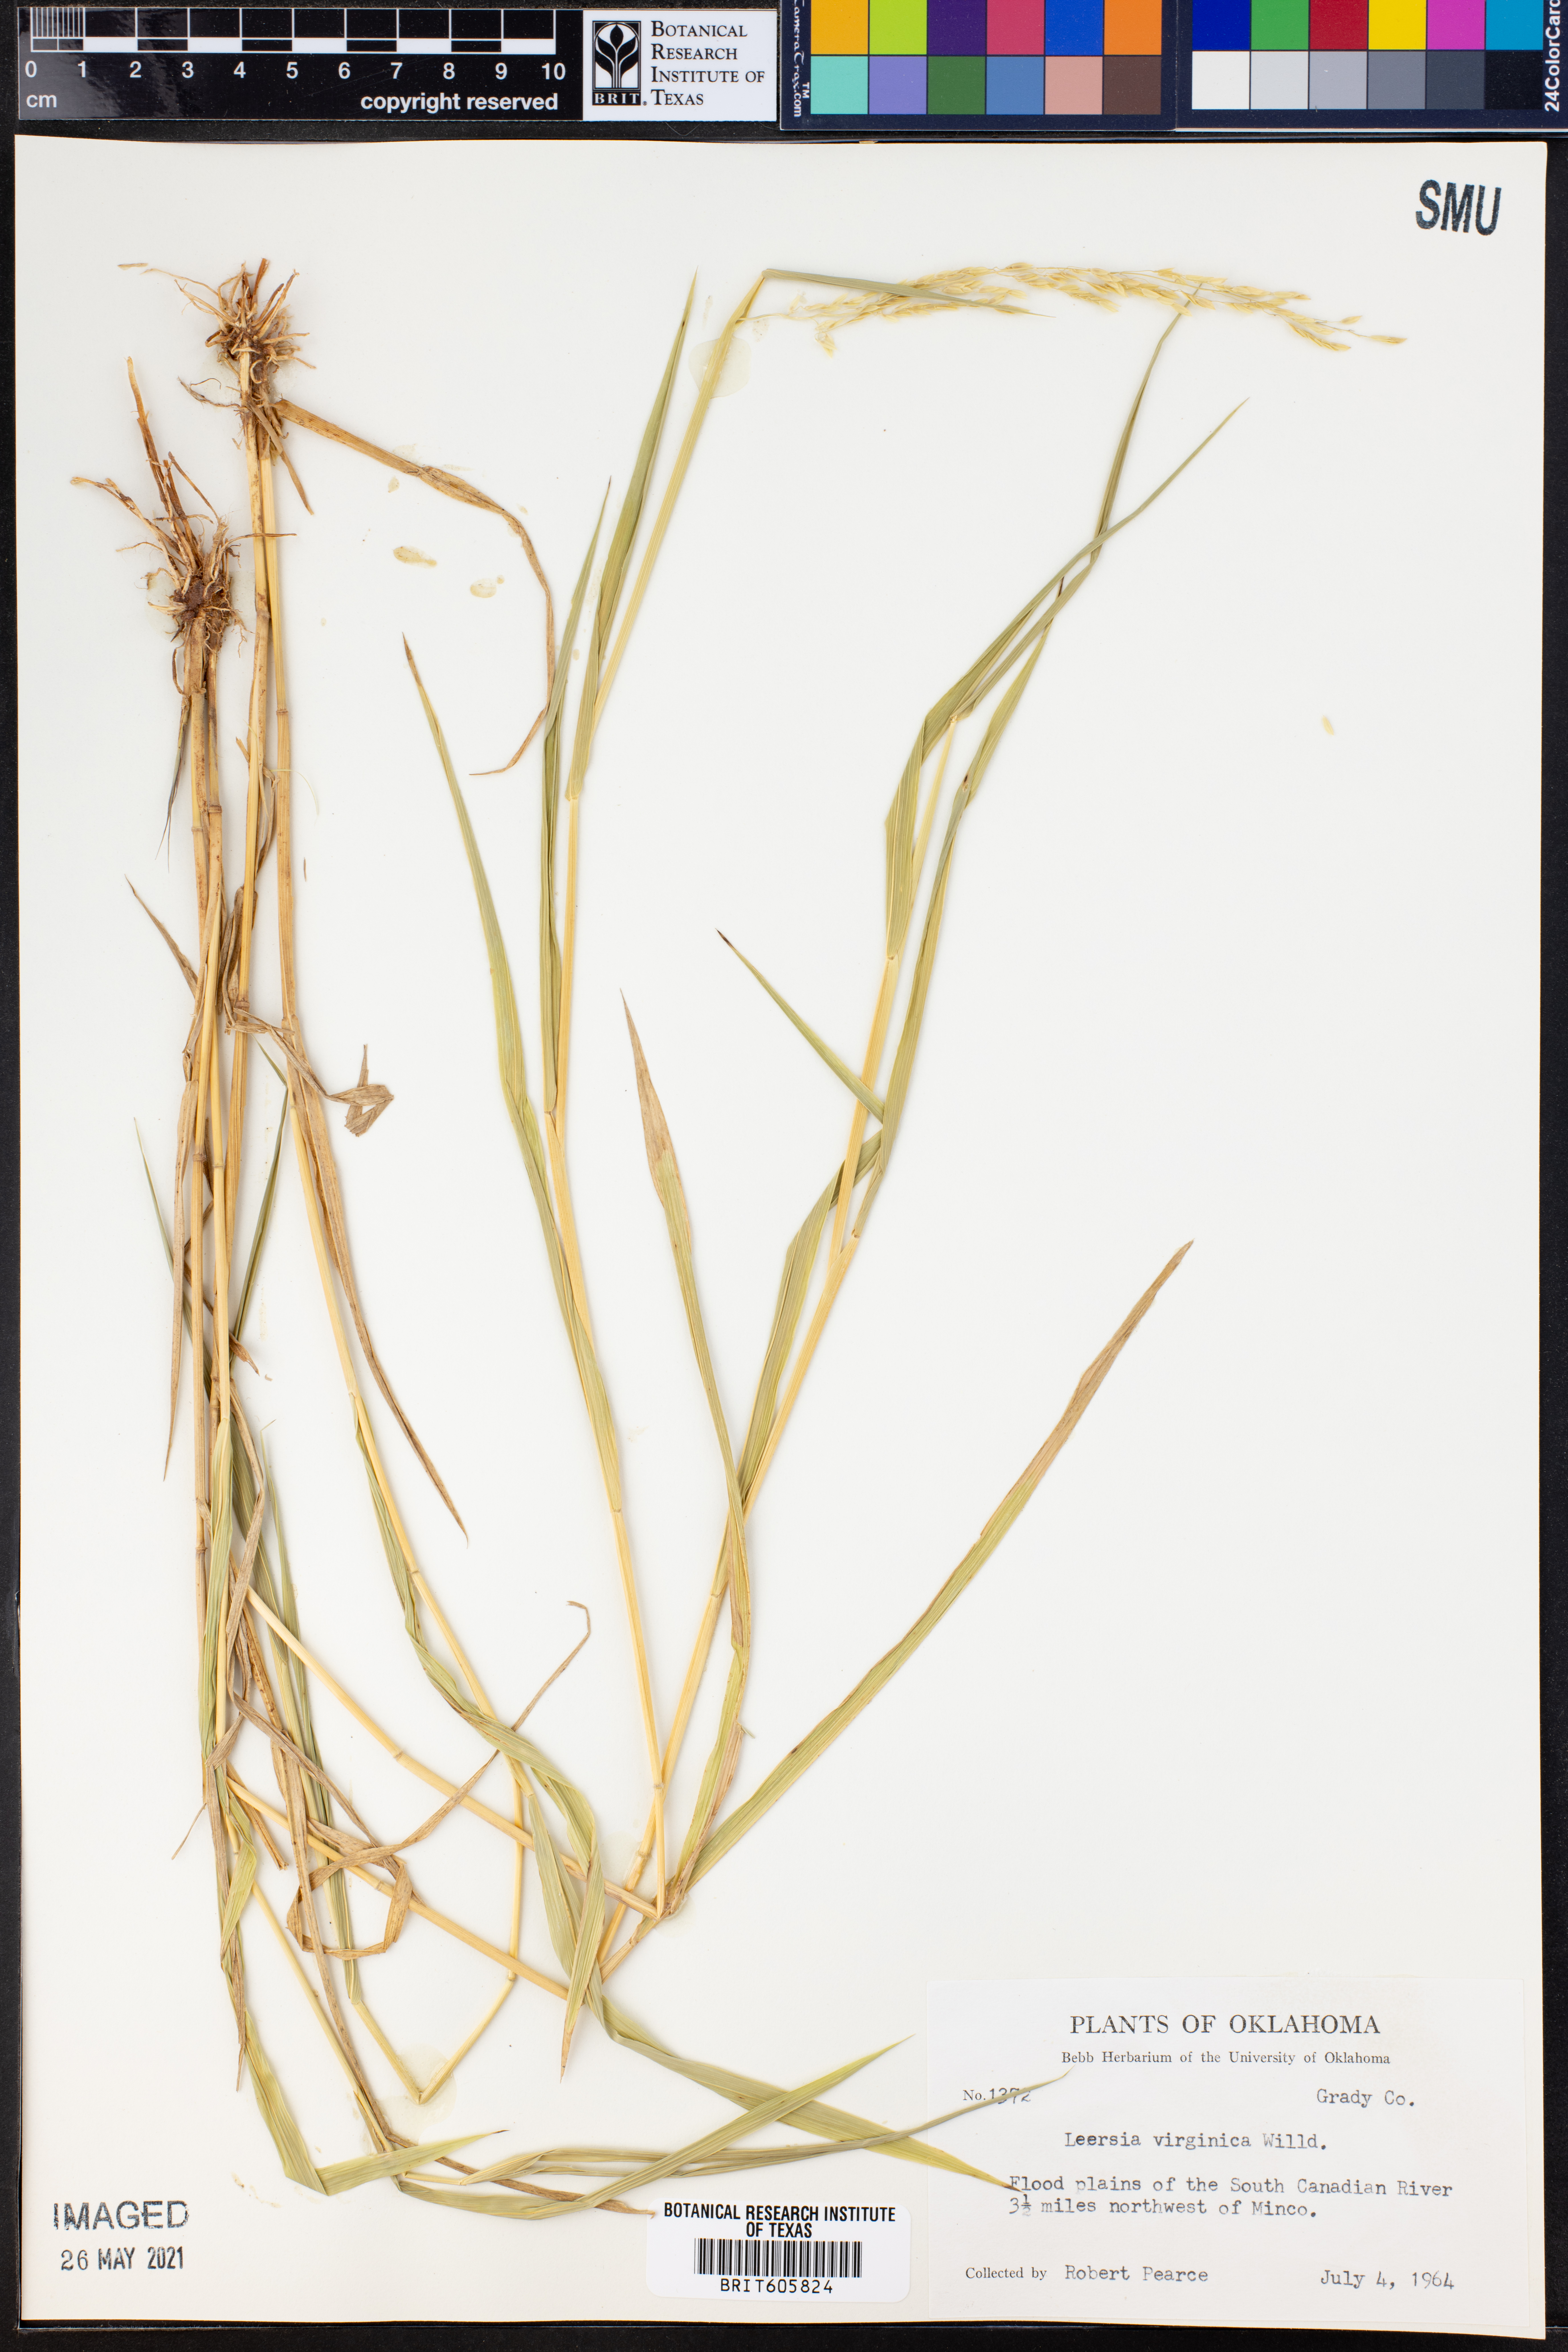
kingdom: Plantae
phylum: Tracheophyta
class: Liliopsida
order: Poales
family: Poaceae
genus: Leersia
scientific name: Leersia virginica
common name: White cutgrass
